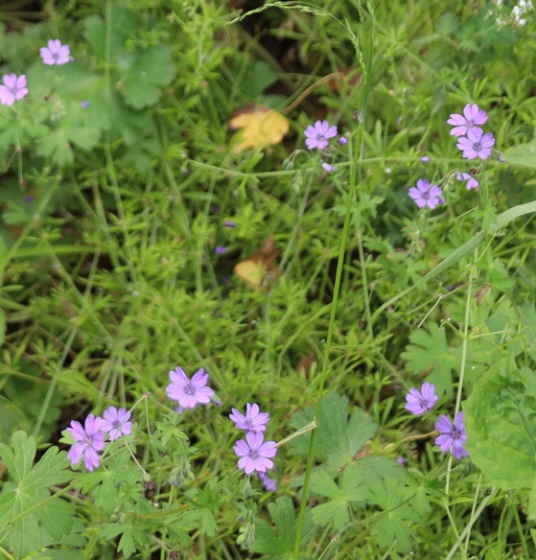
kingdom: Plantae
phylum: Tracheophyta
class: Magnoliopsida
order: Geraniales
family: Geraniaceae
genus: Geranium
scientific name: Geranium pyrenaicum
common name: Pyrenæisk storkenæb
